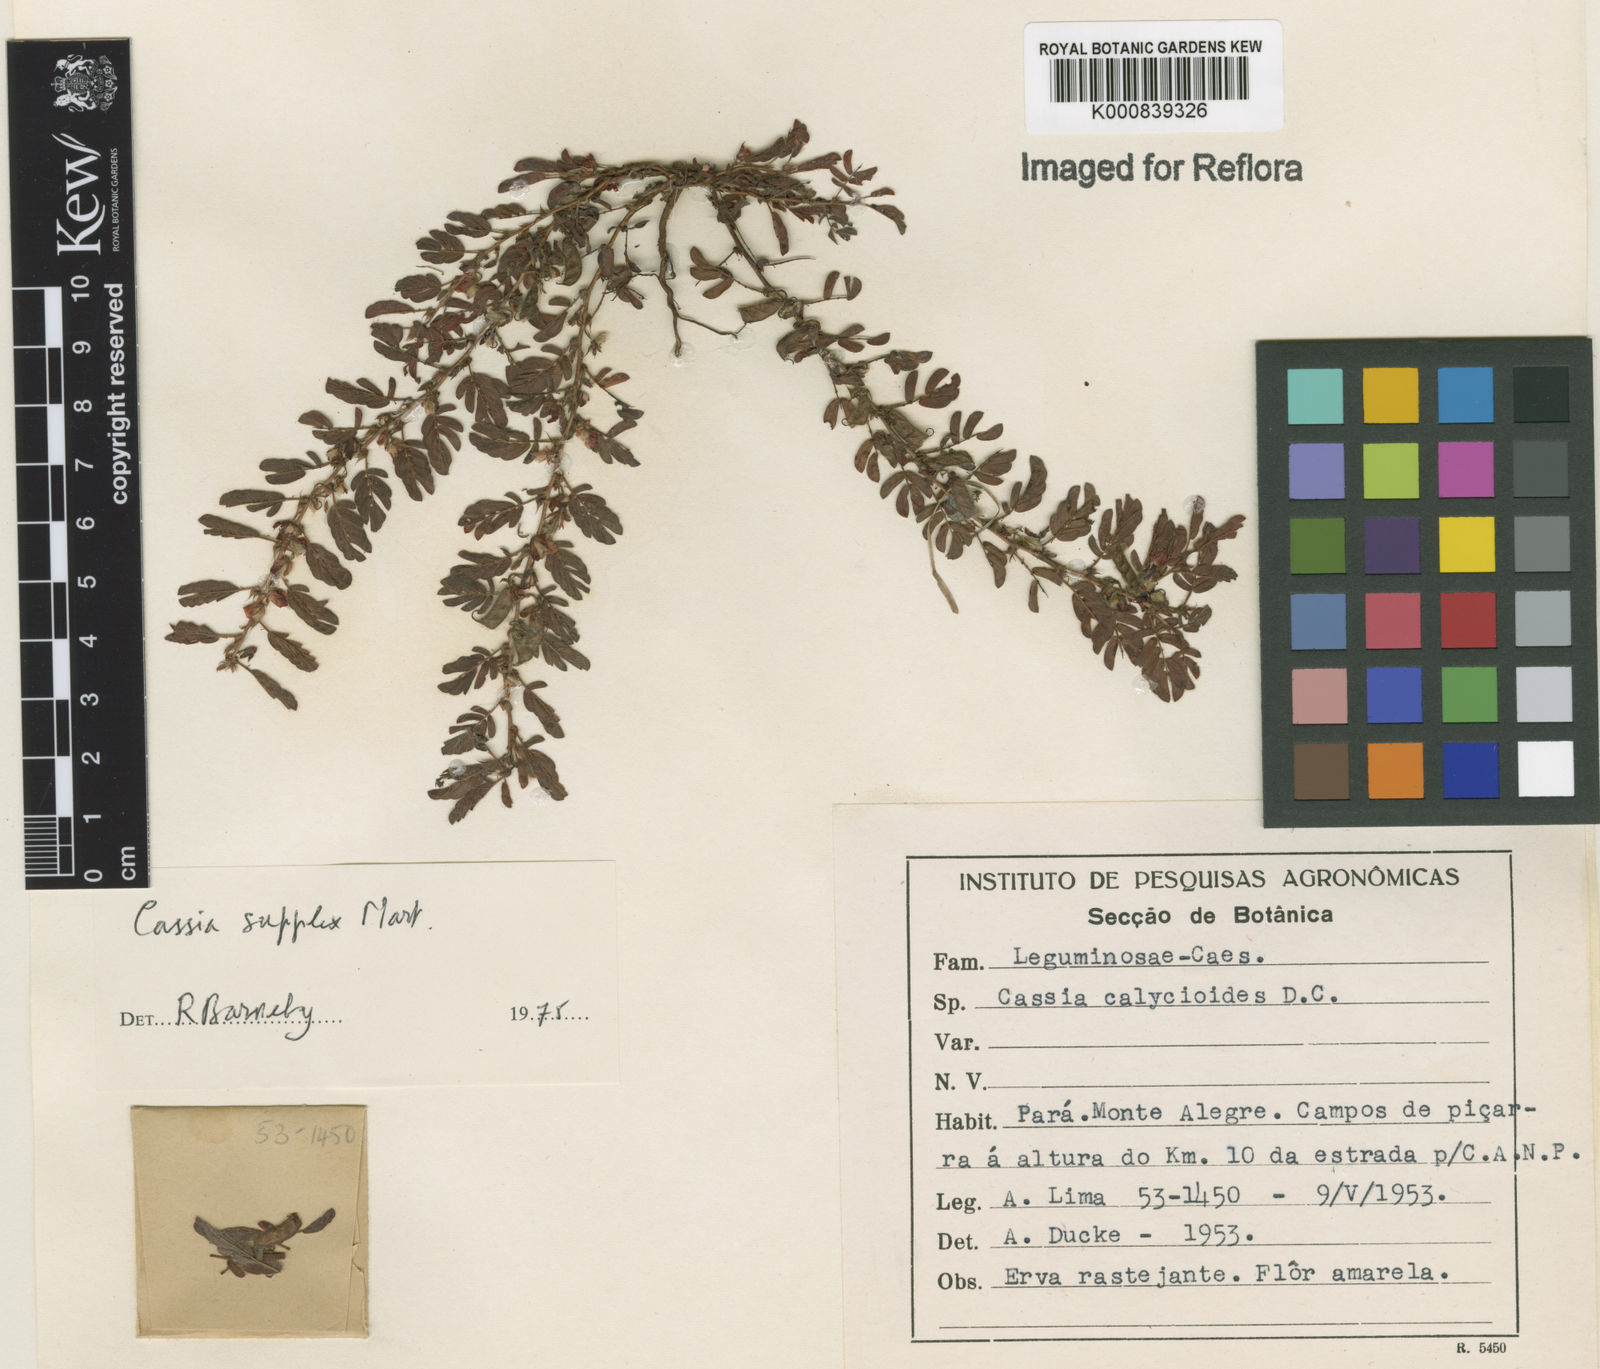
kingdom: Plantae
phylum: Tracheophyta
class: Magnoliopsida
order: Fabales
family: Fabaceae
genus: Chamaecrista
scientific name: Chamaecrista supplex
